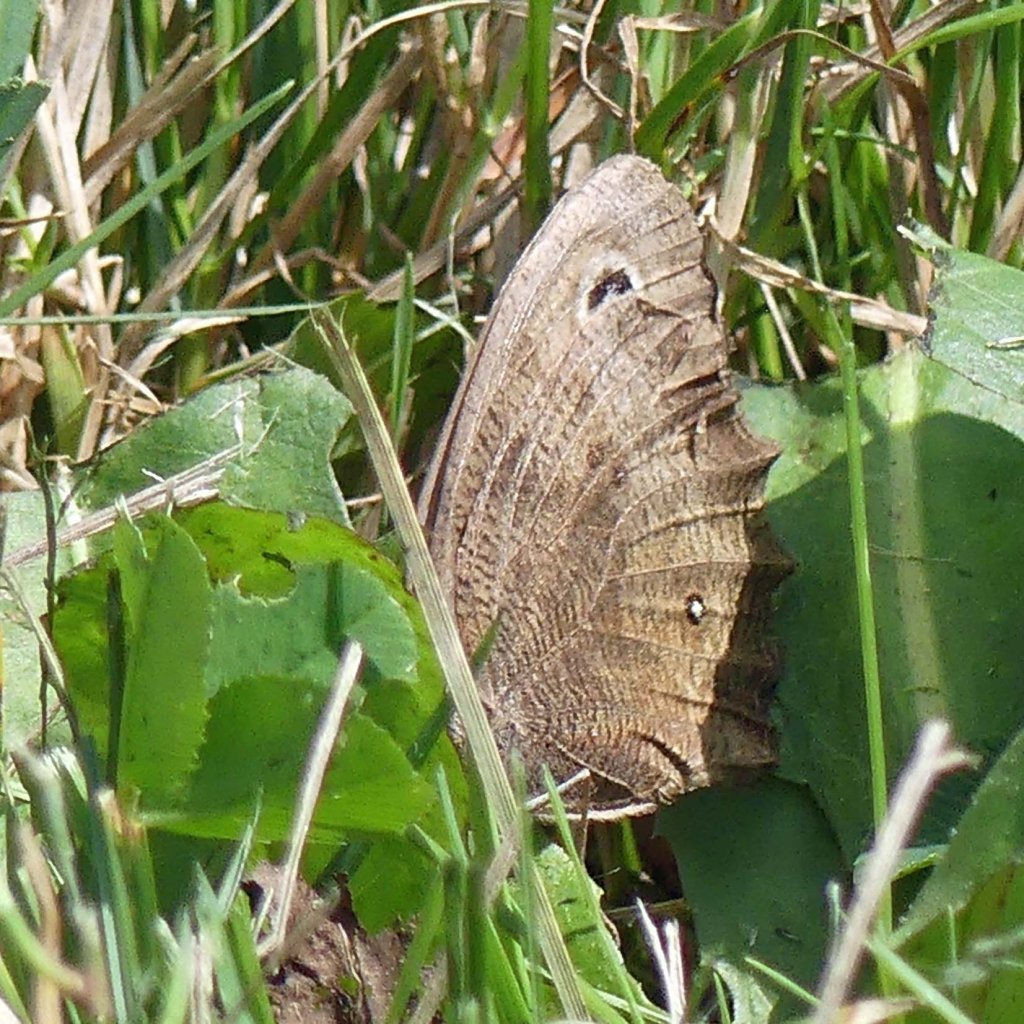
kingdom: Animalia
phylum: Arthropoda
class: Insecta
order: Lepidoptera
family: Nymphalidae
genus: Cercyonis
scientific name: Cercyonis pegala
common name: Common Wood-Nymph
